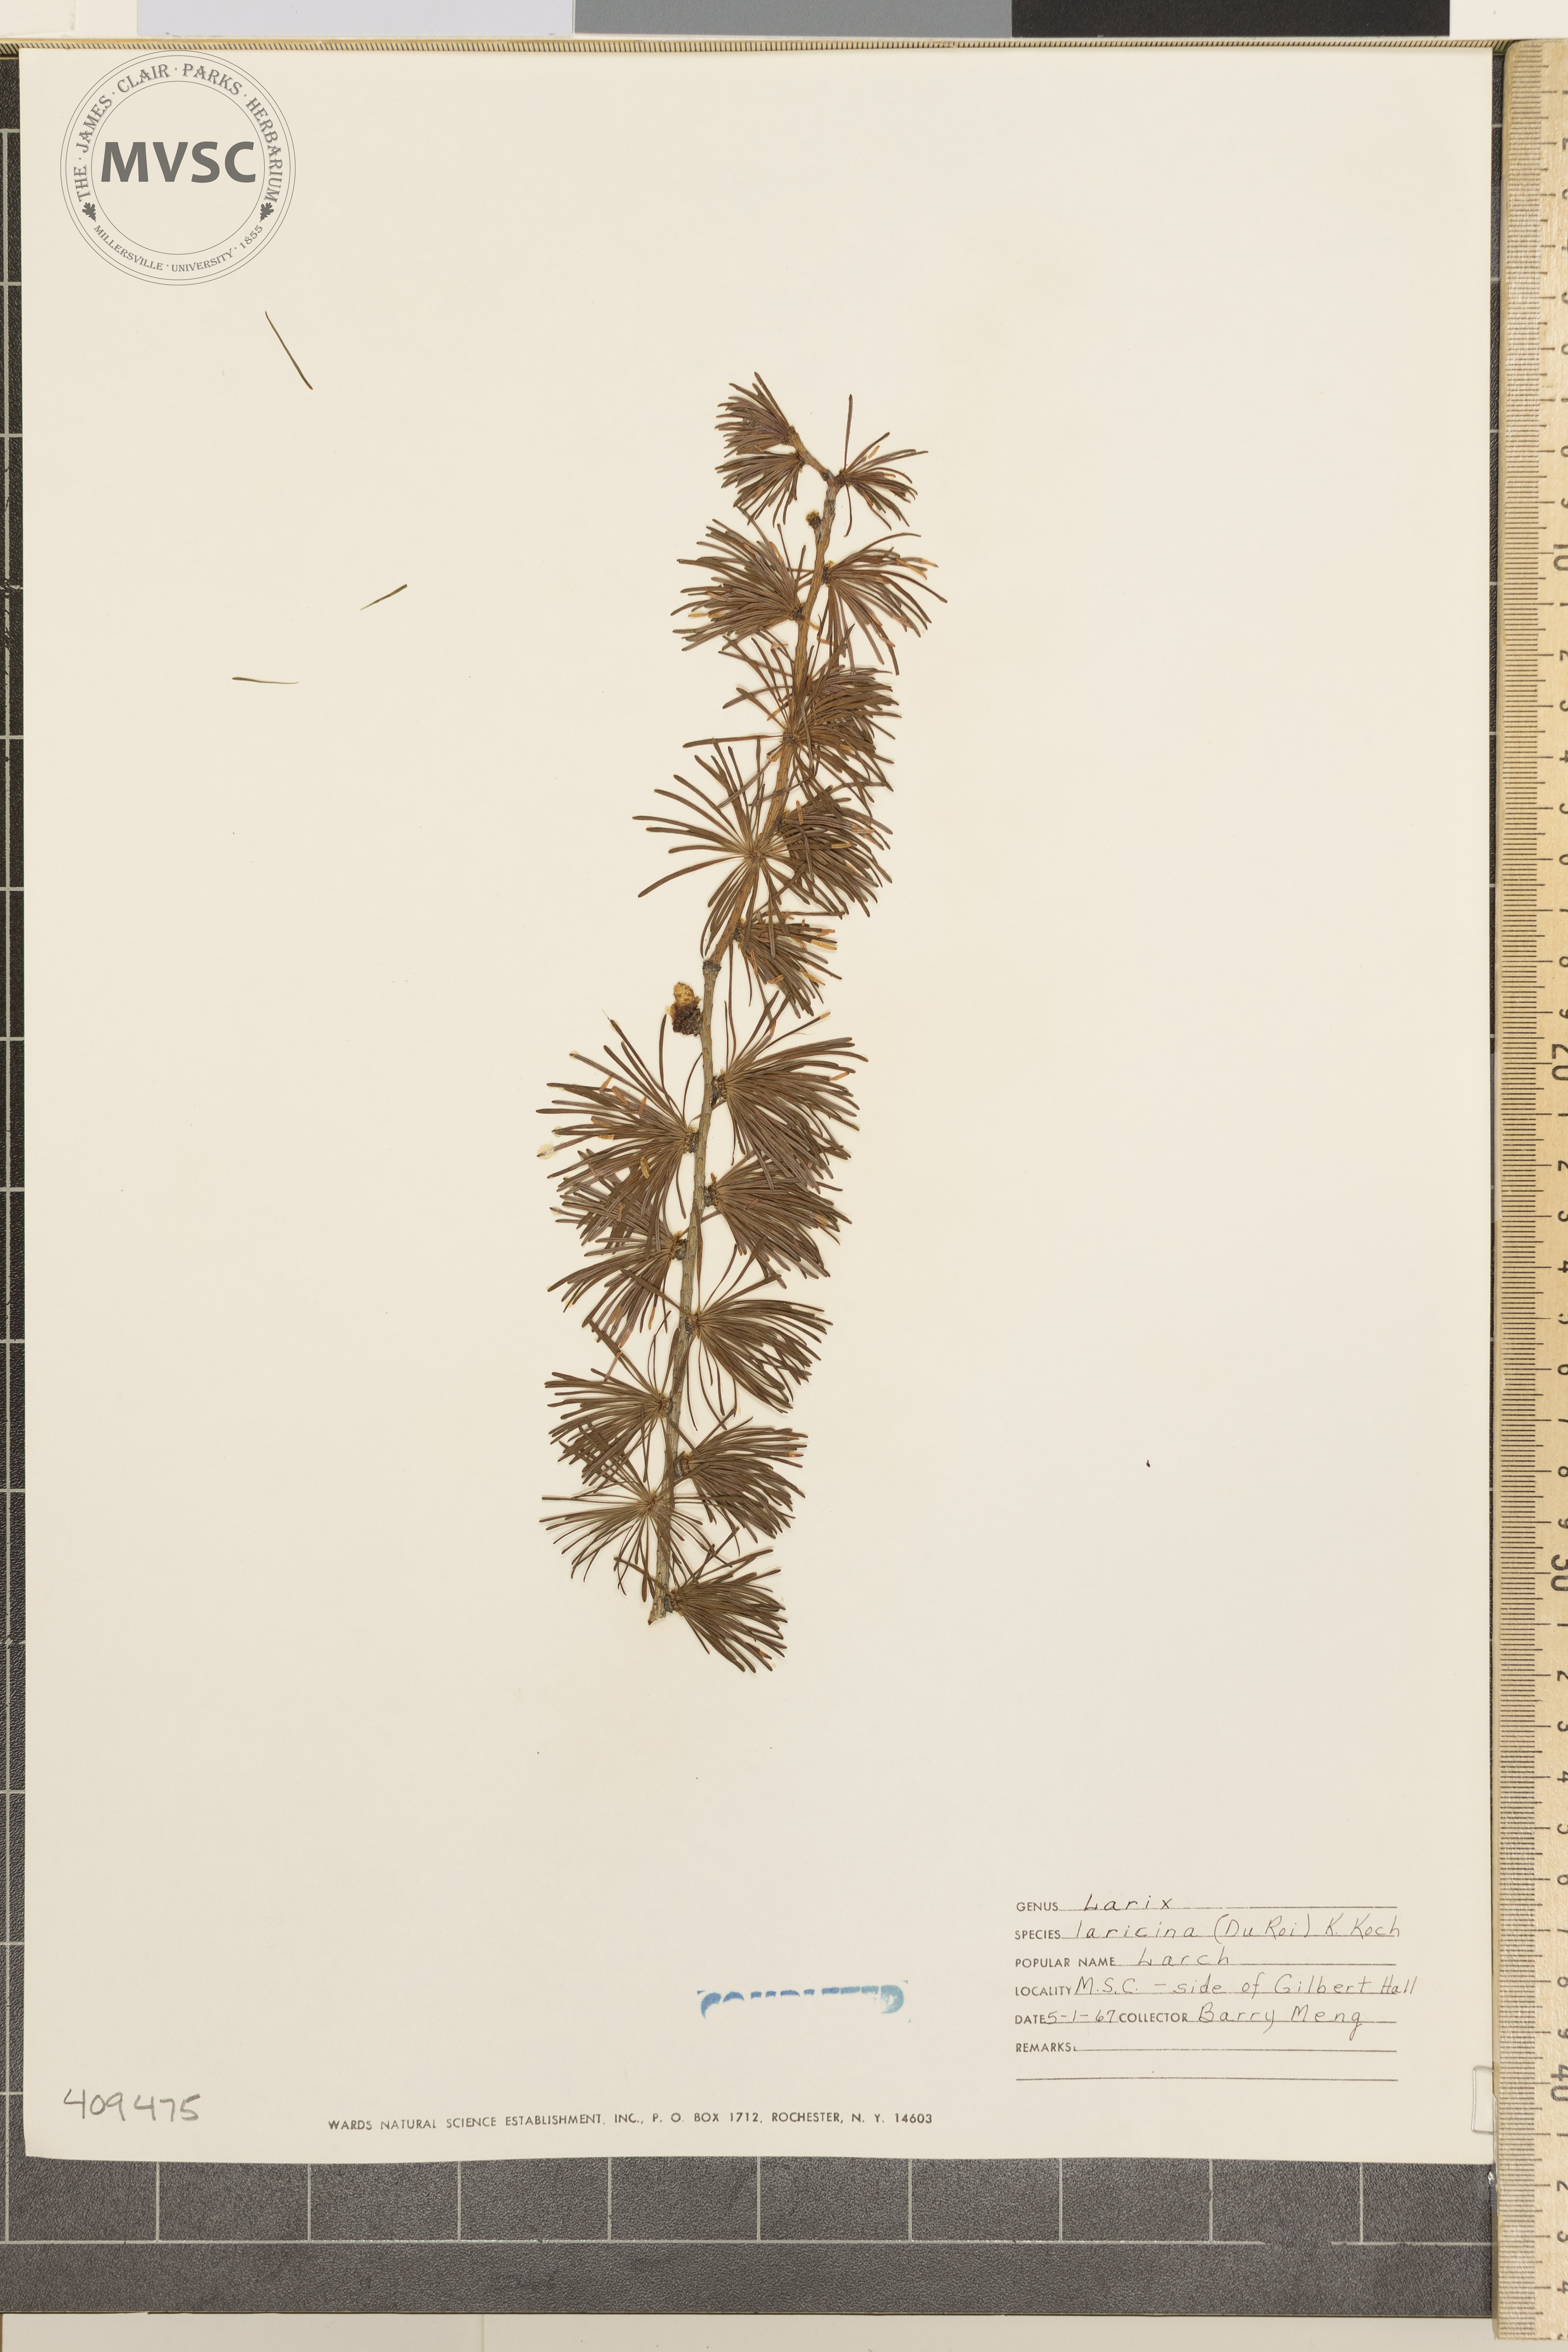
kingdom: Plantae
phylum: Tracheophyta
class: Pinopsida
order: Pinales
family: Pinaceae
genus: Larix
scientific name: Larix laricina
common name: American larch
